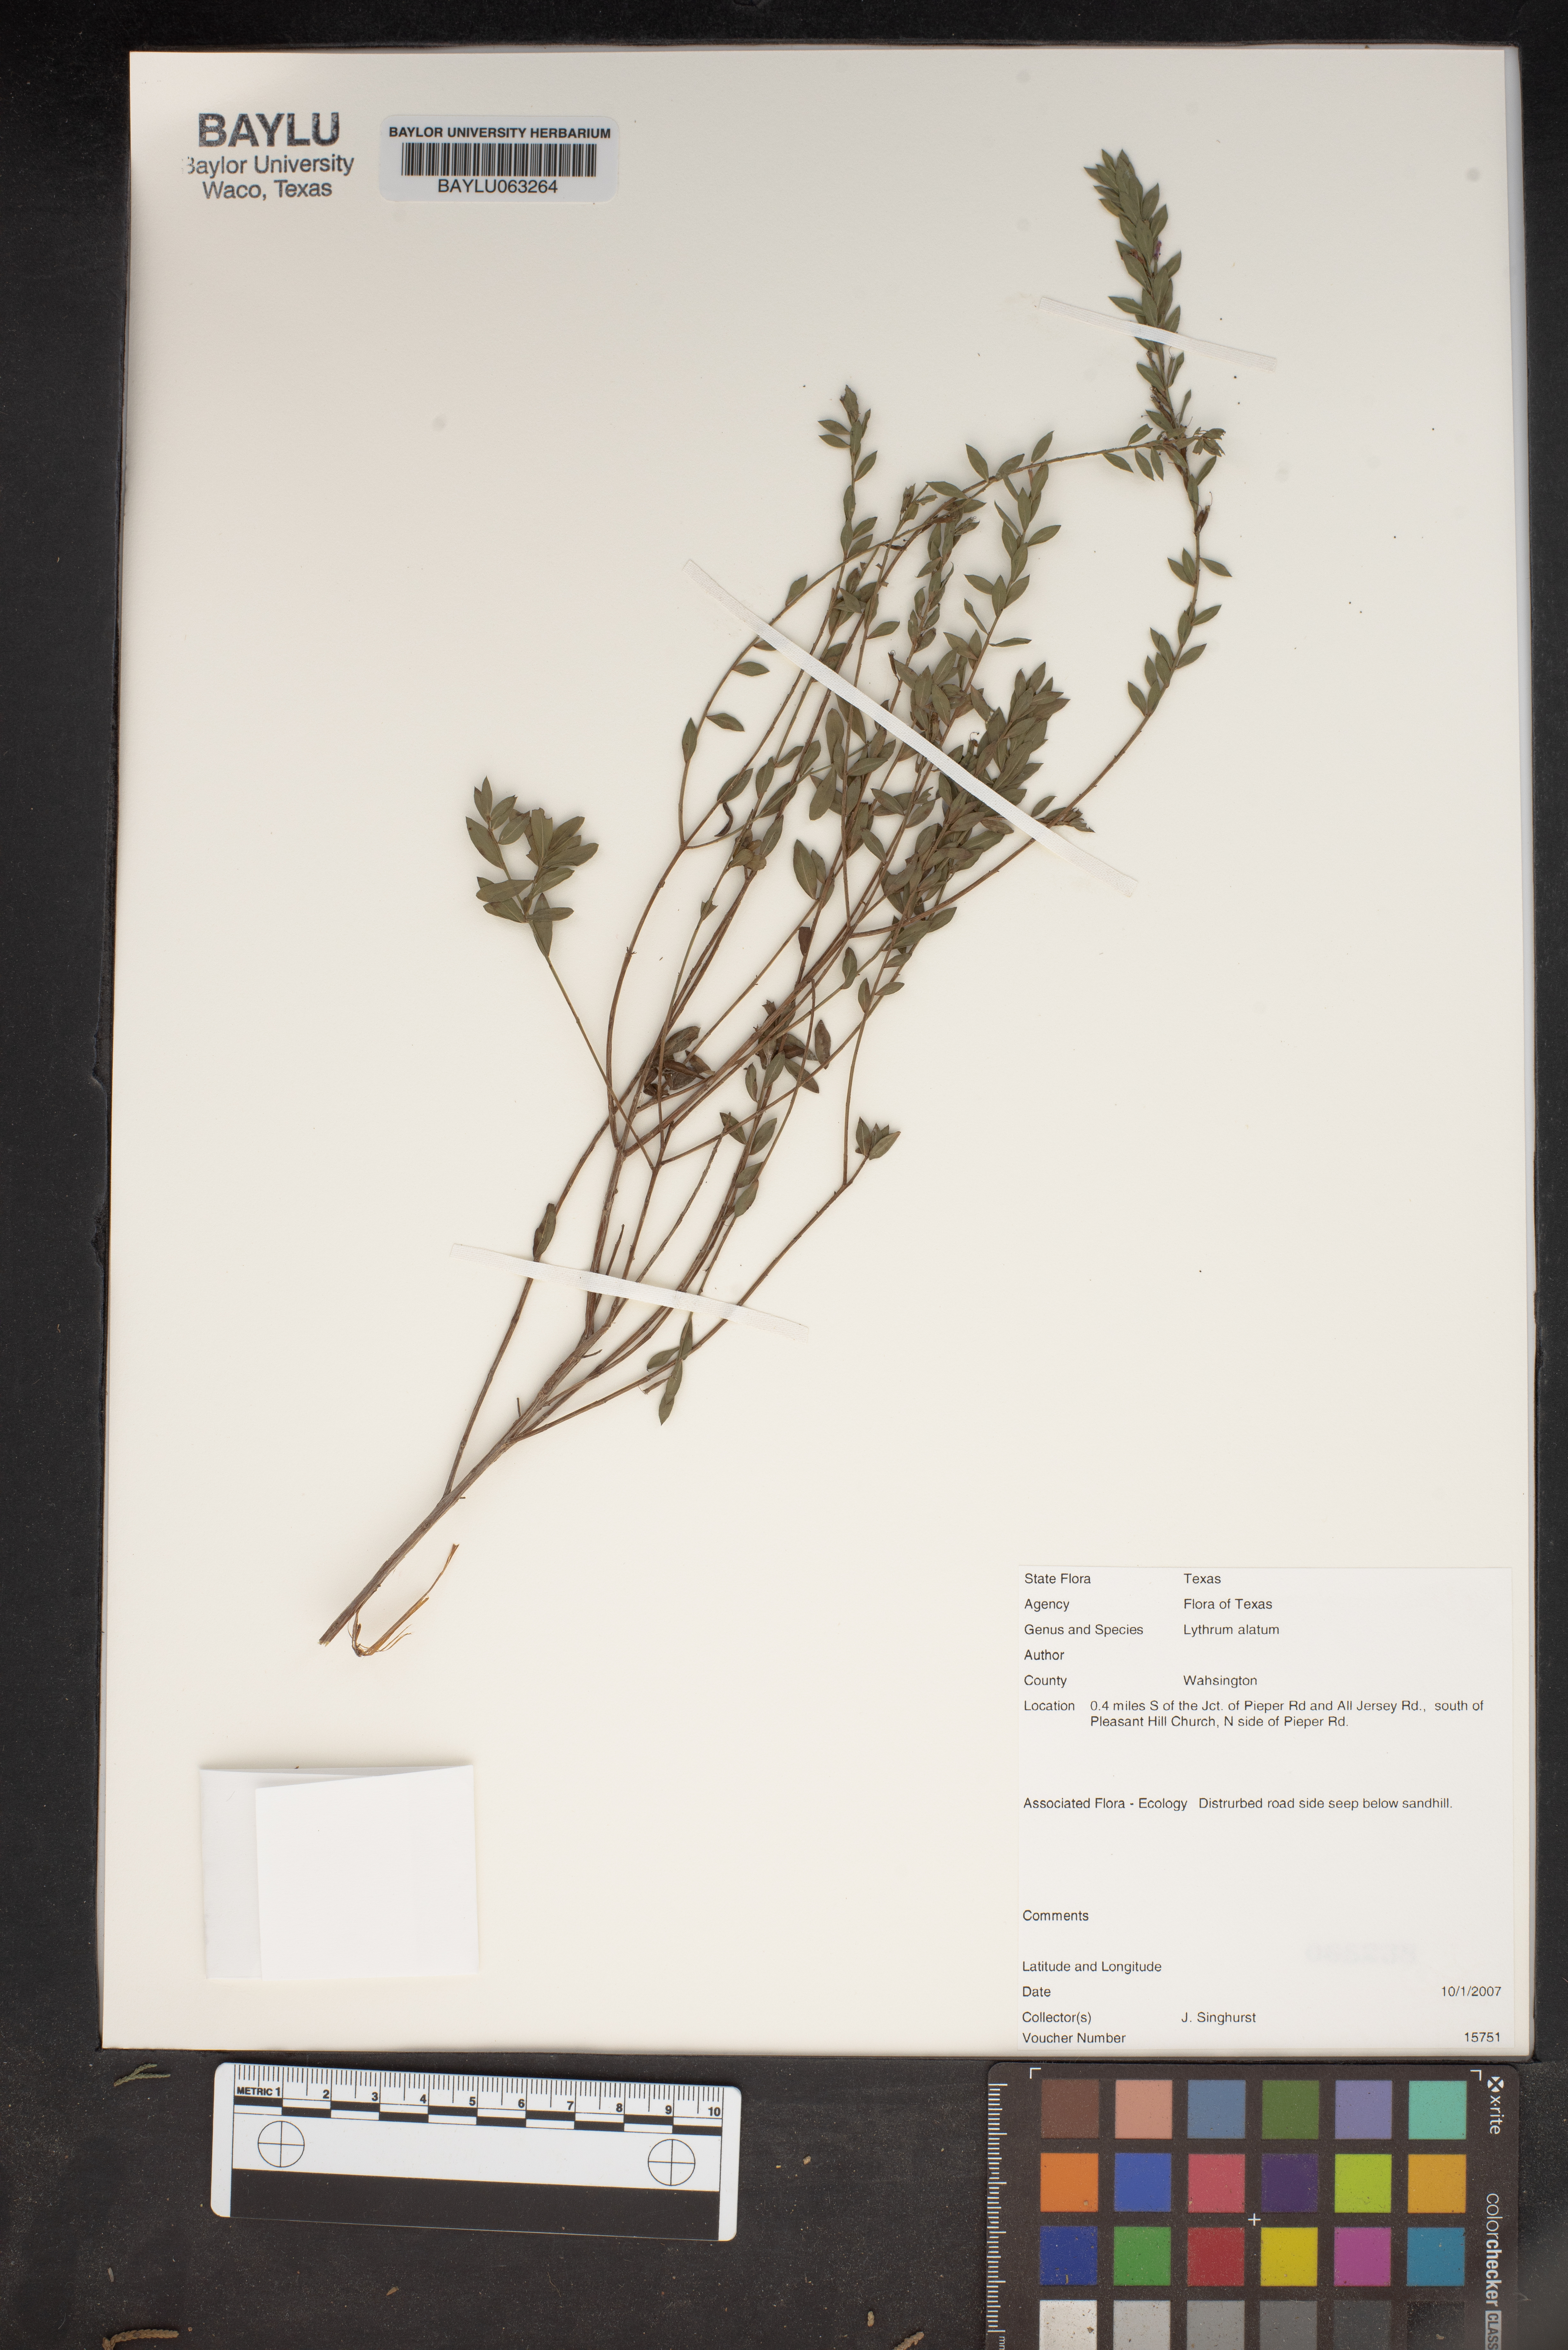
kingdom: Plantae
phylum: Tracheophyta
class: Magnoliopsida
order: Myrtales
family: Lythraceae
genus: Lythrum
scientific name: Lythrum alatum
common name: Winged loosestrife
